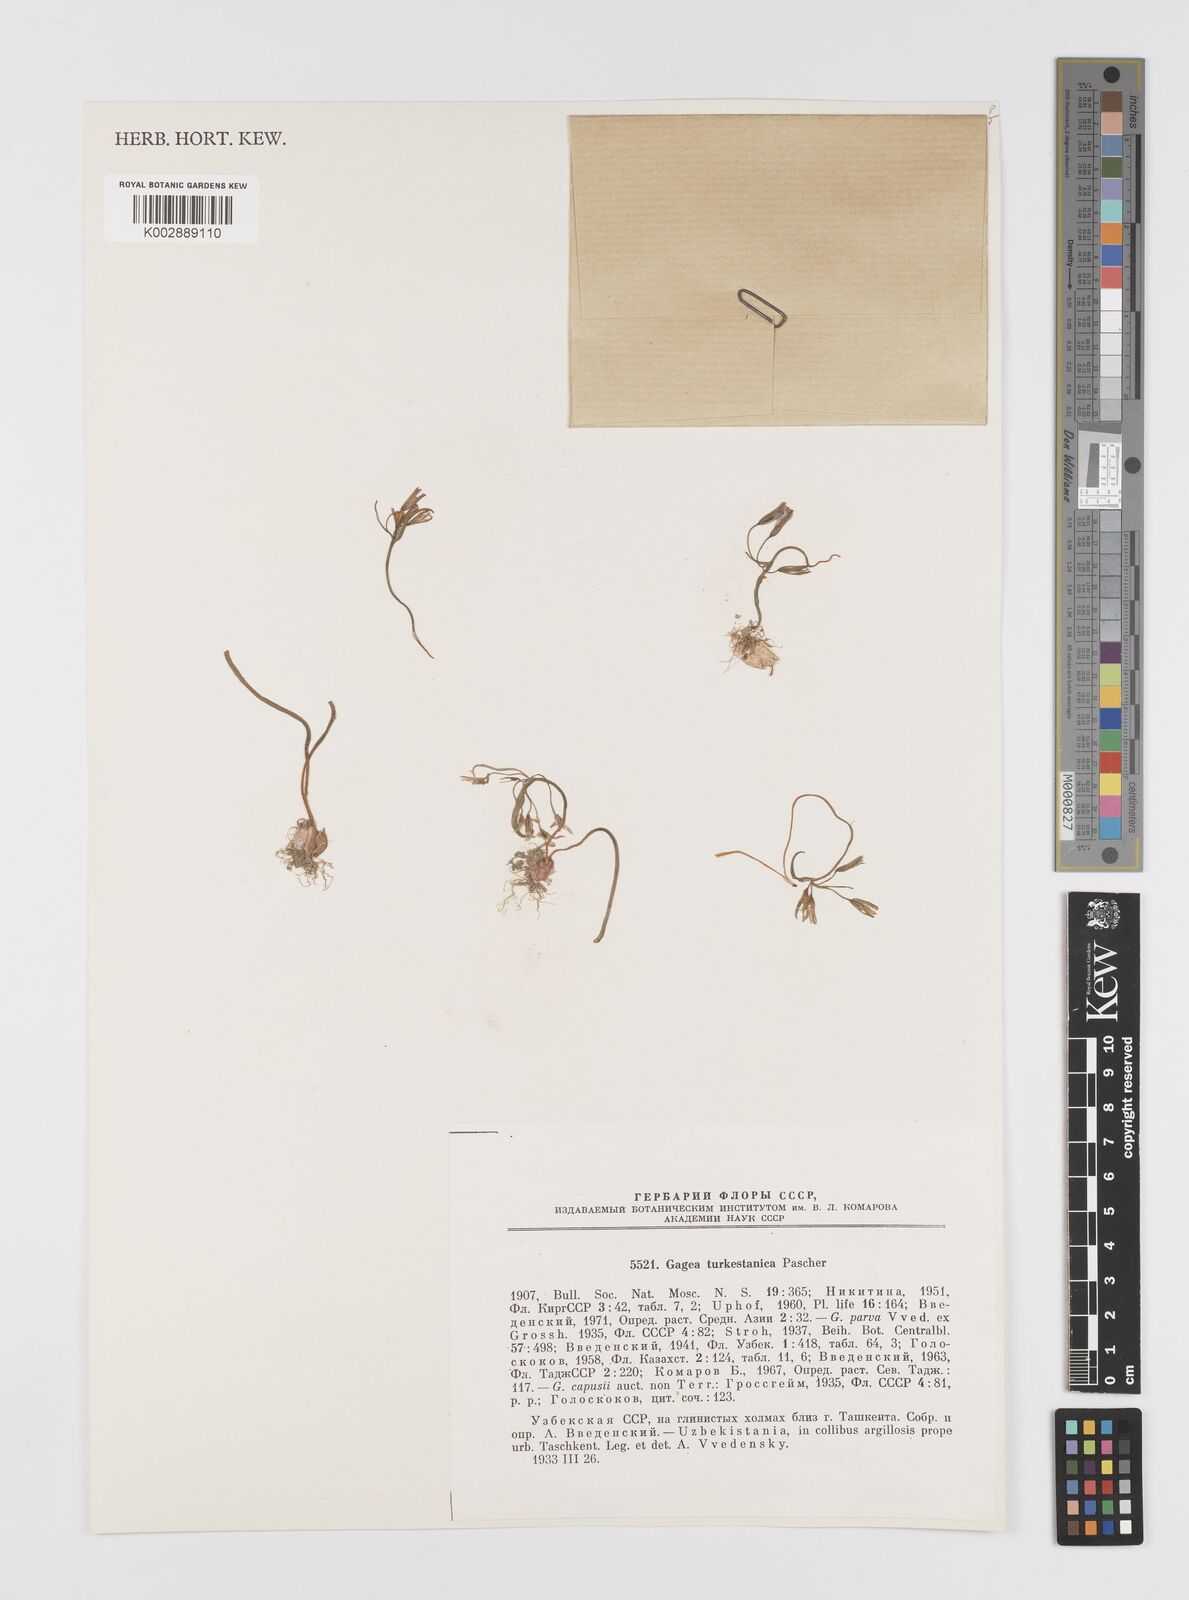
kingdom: Plantae
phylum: Tracheophyta
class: Liliopsida
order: Liliales
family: Liliaceae
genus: Gagea
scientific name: Gagea capusii
